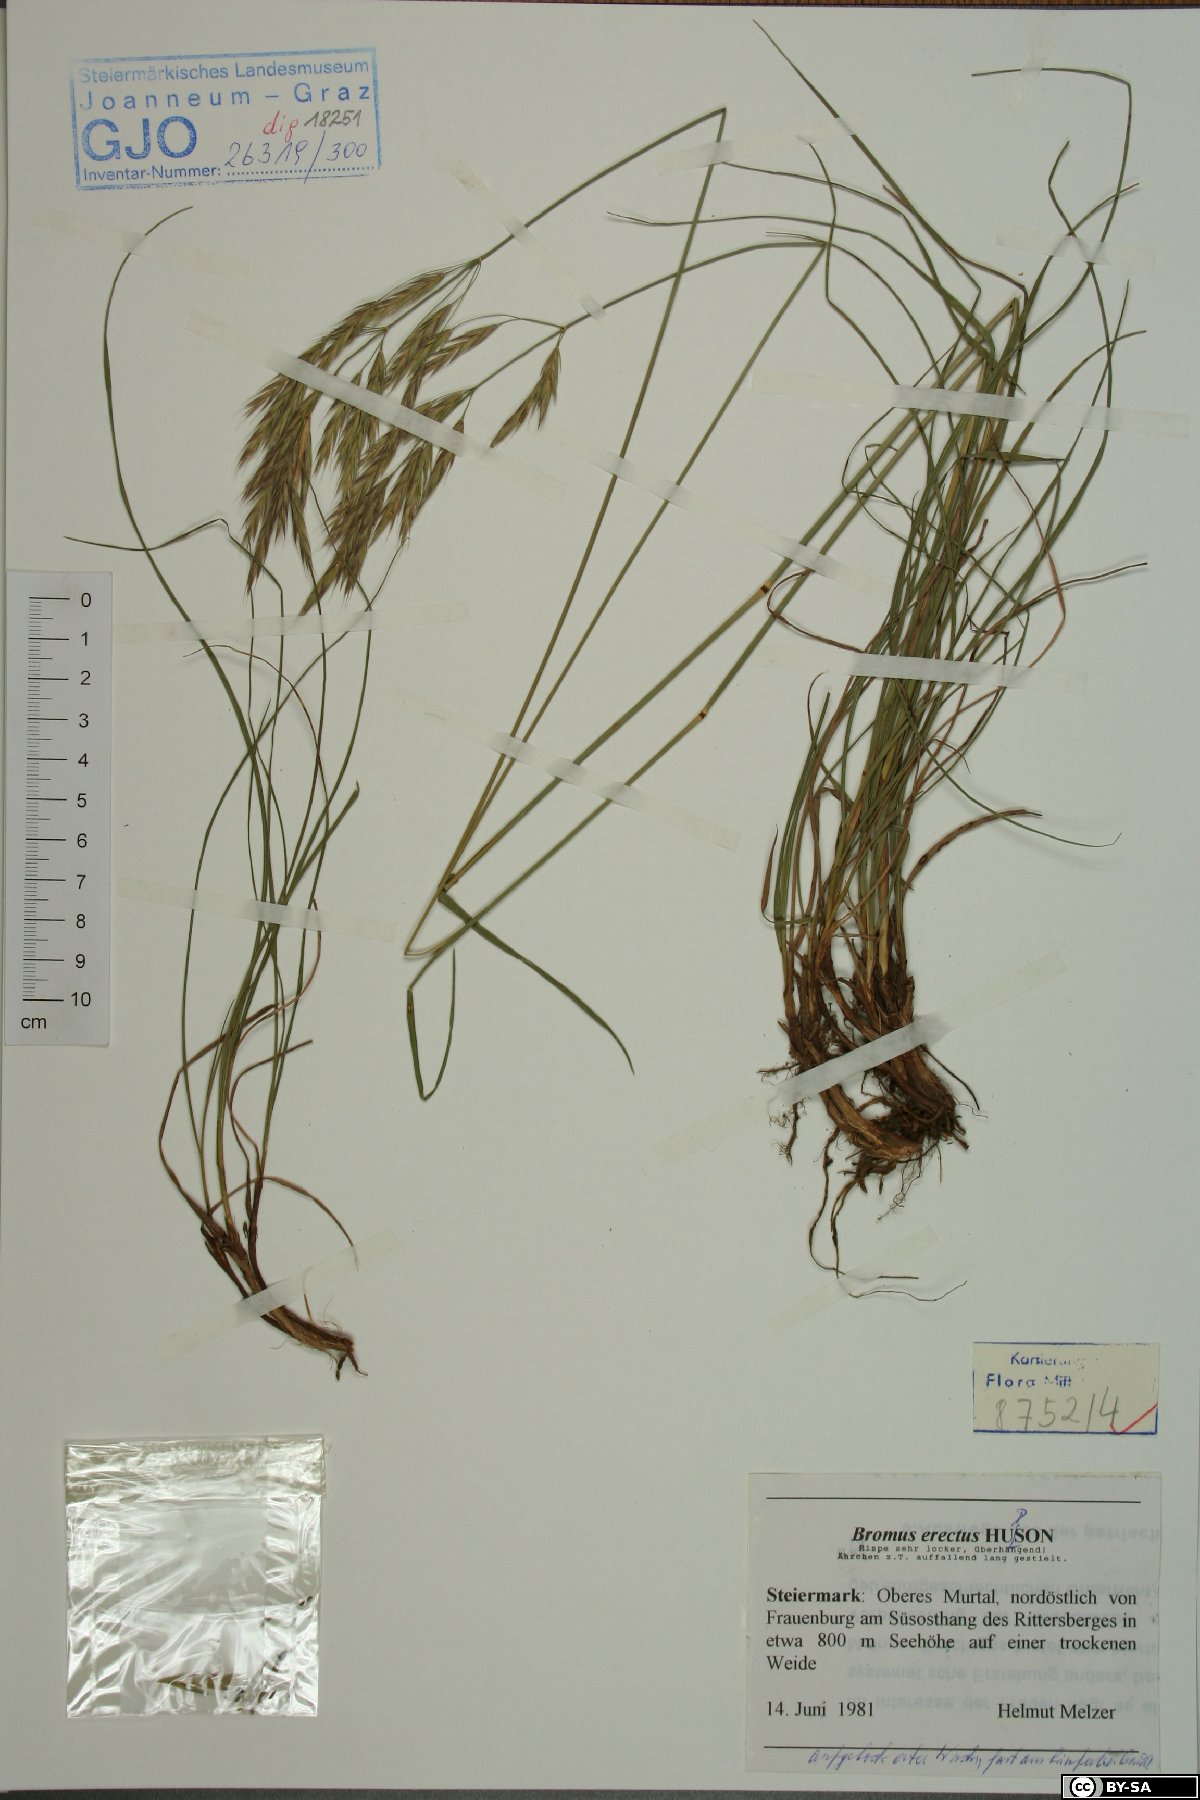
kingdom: Plantae
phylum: Tracheophyta
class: Liliopsida
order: Poales
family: Poaceae
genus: Bromus
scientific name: Bromus erectus
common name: Erect brome
